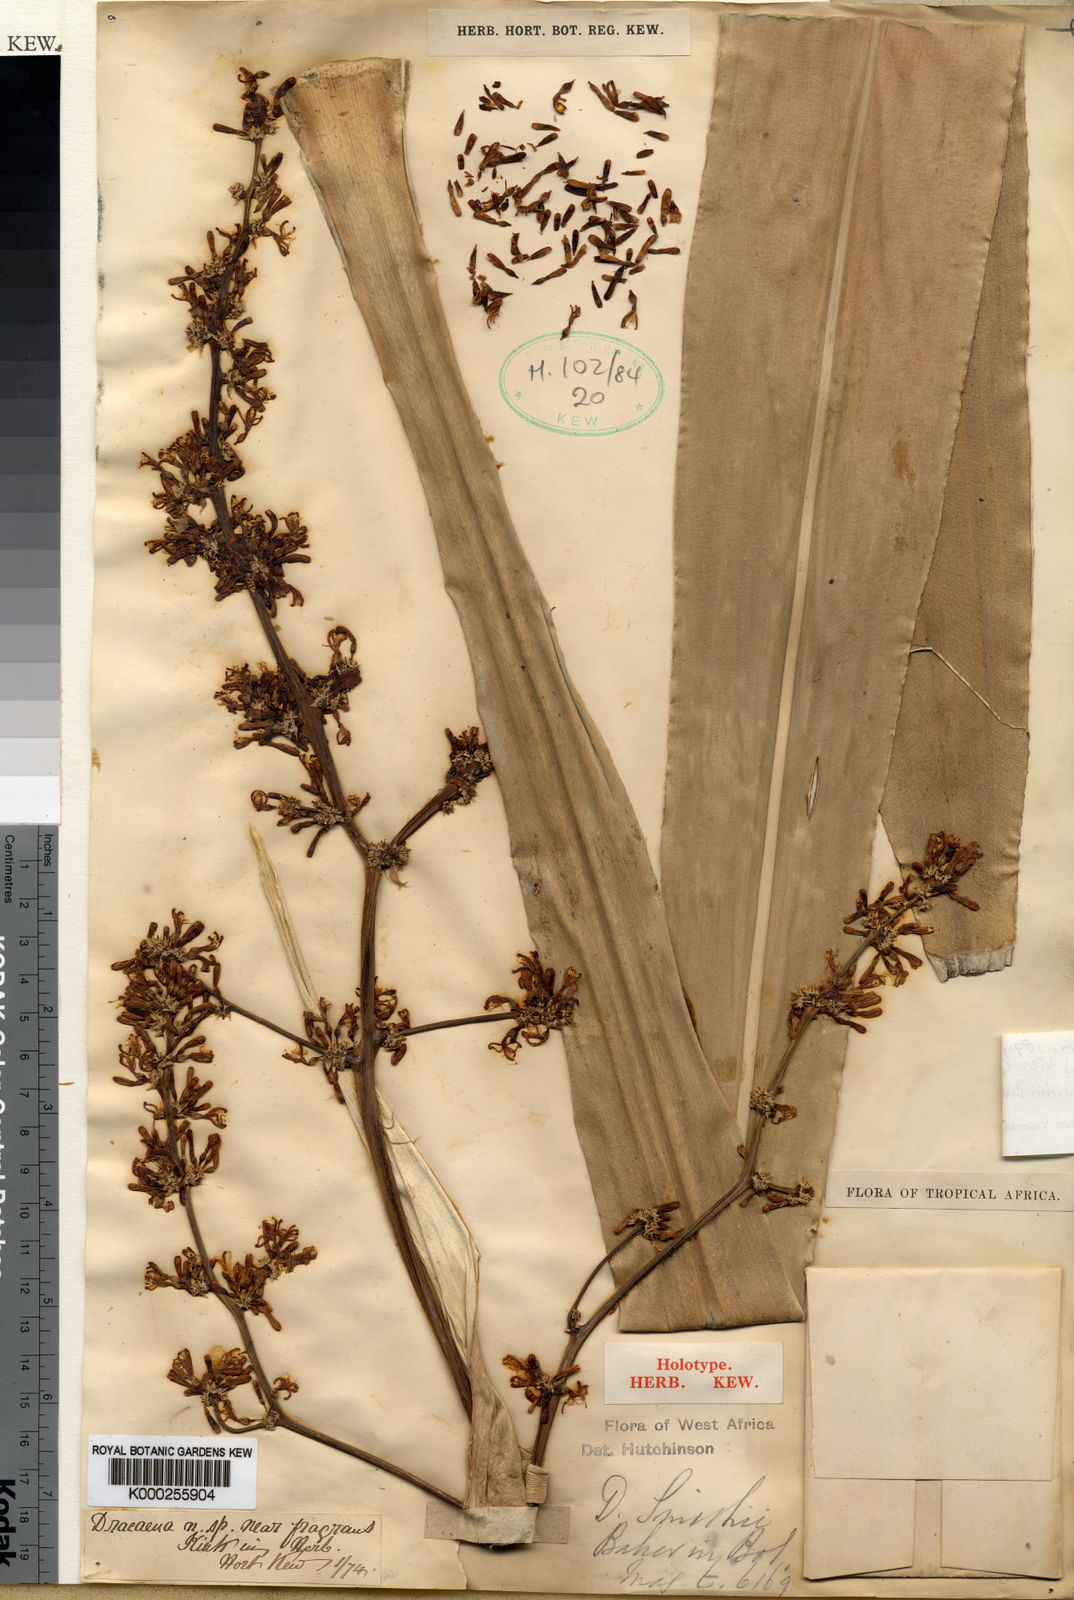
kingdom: Plantae
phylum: Tracheophyta
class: Liliopsida
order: Asparagales
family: Asparagaceae
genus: Dracaena
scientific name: Dracaena fragrans
